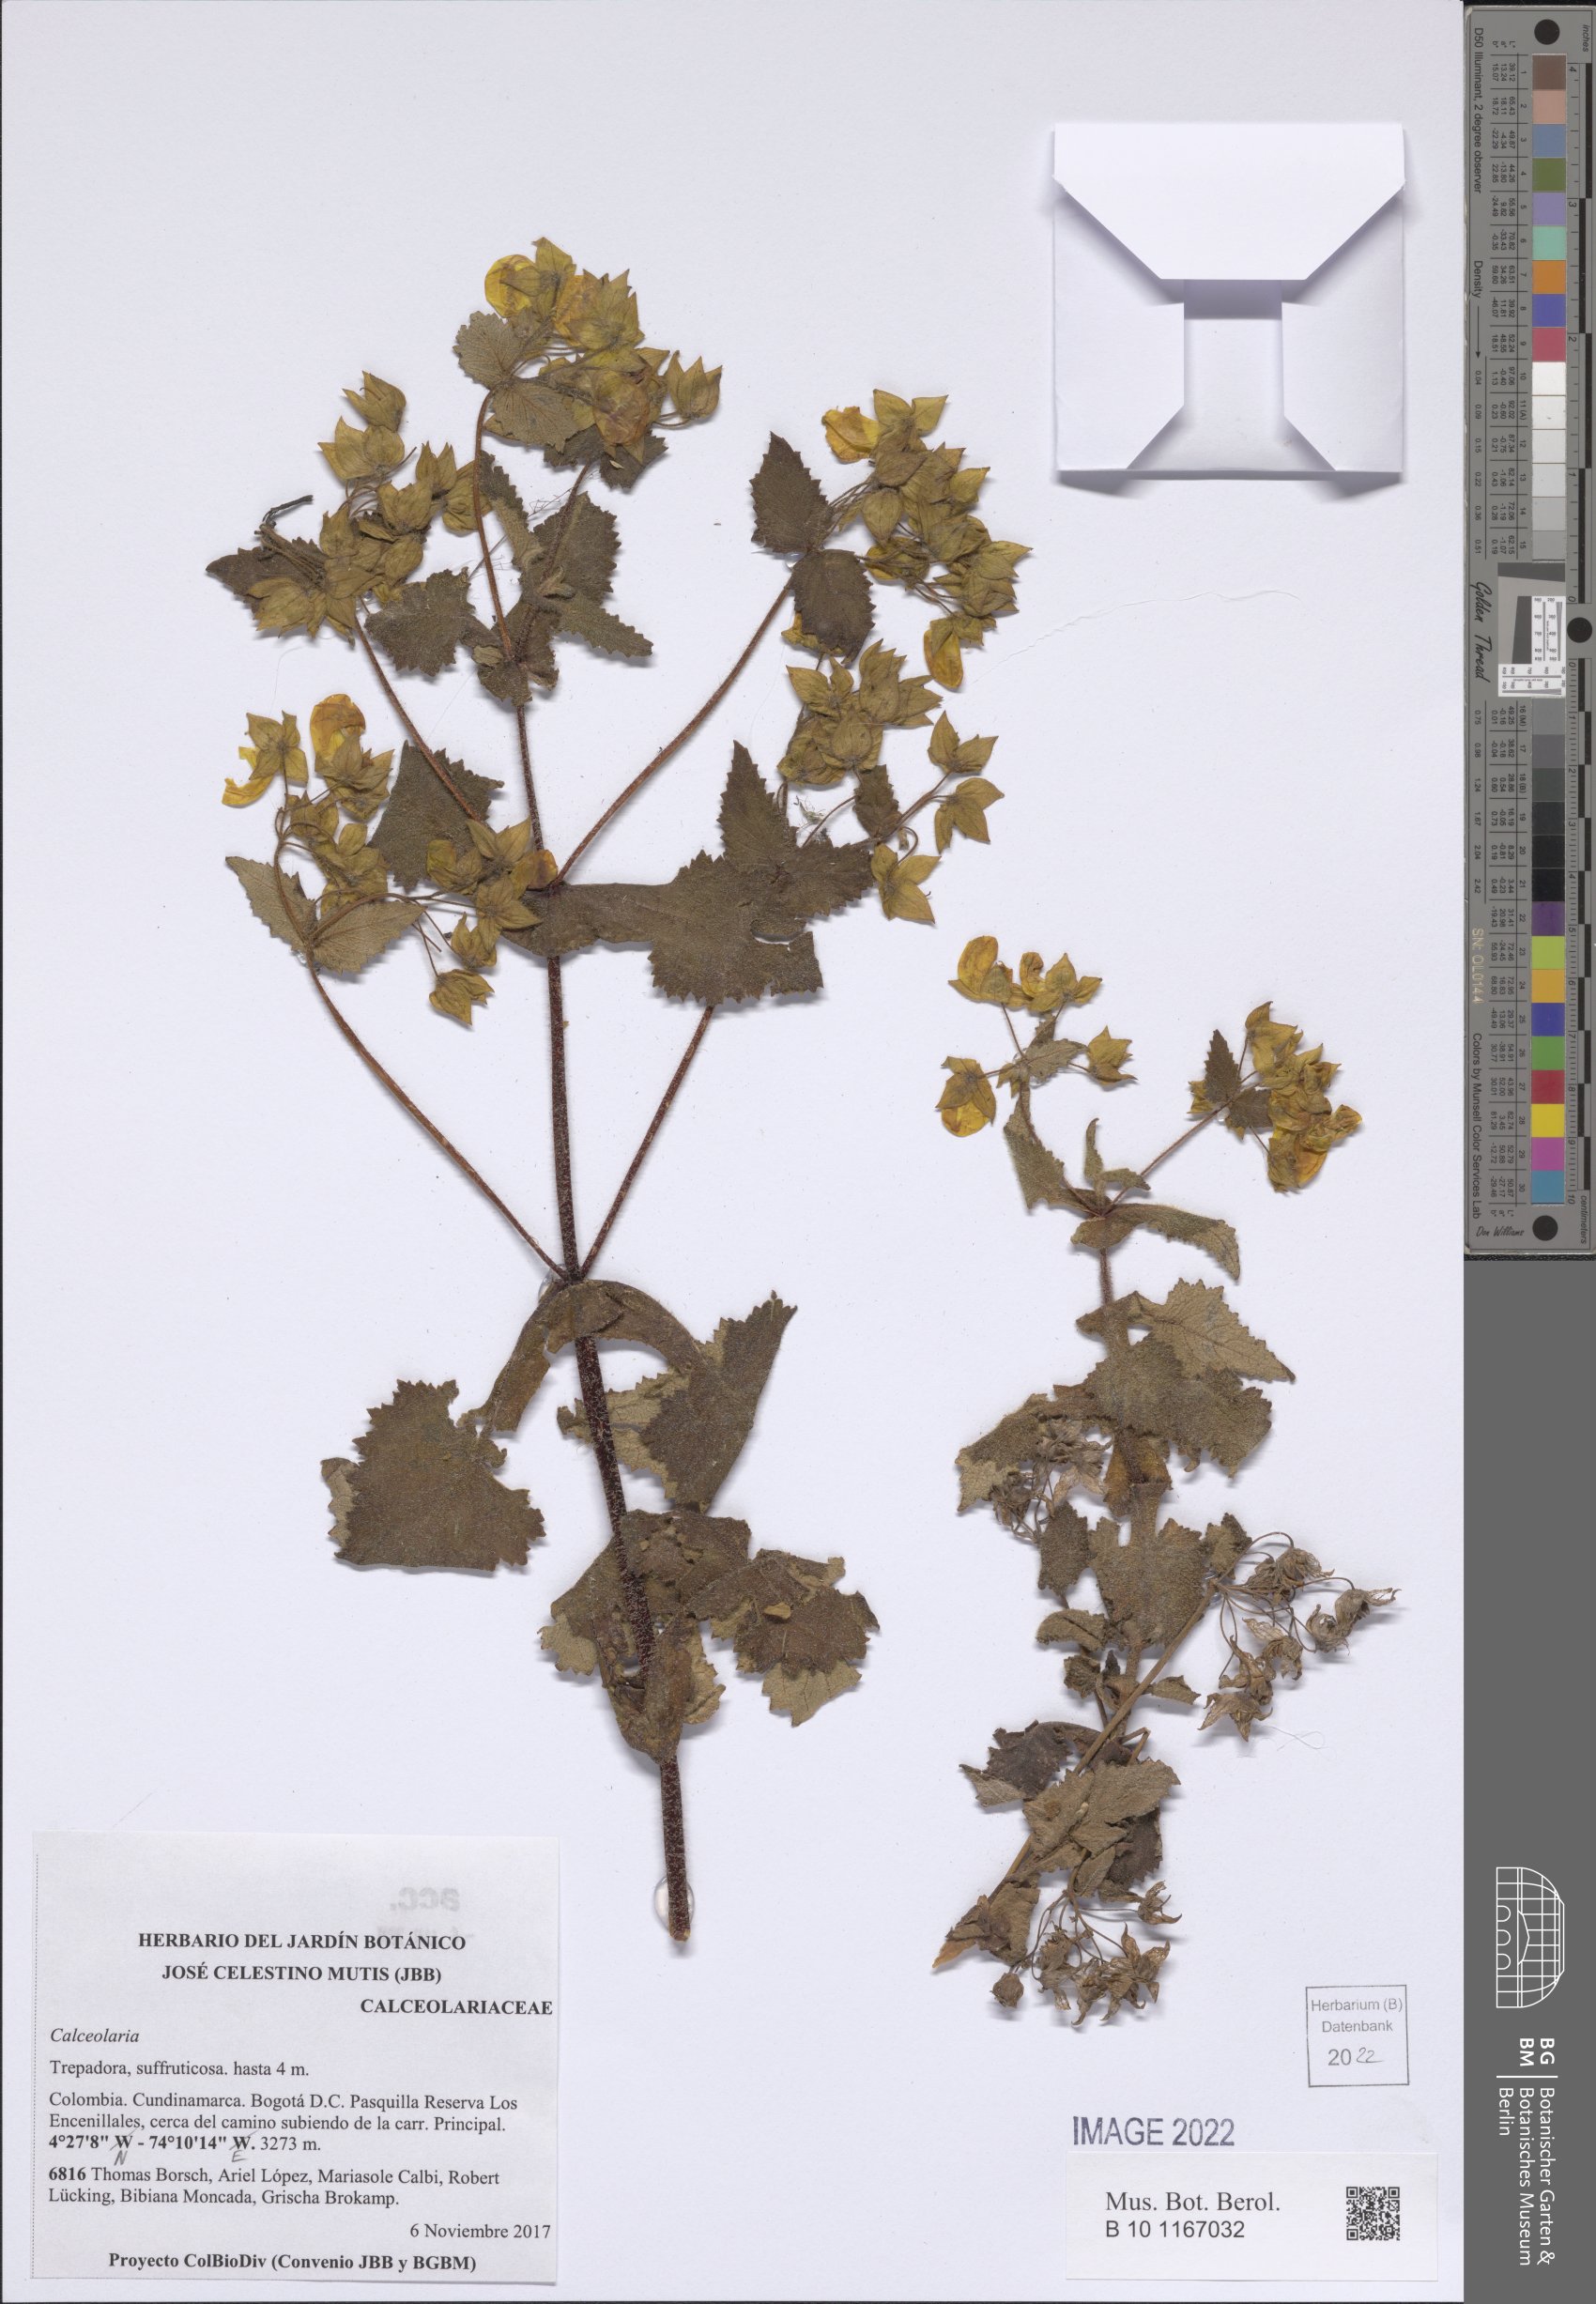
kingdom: Plantae
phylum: Tracheophyta
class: Magnoliopsida
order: Lamiales
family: Calceolariaceae
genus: Calceolaria
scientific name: Calceolaria
